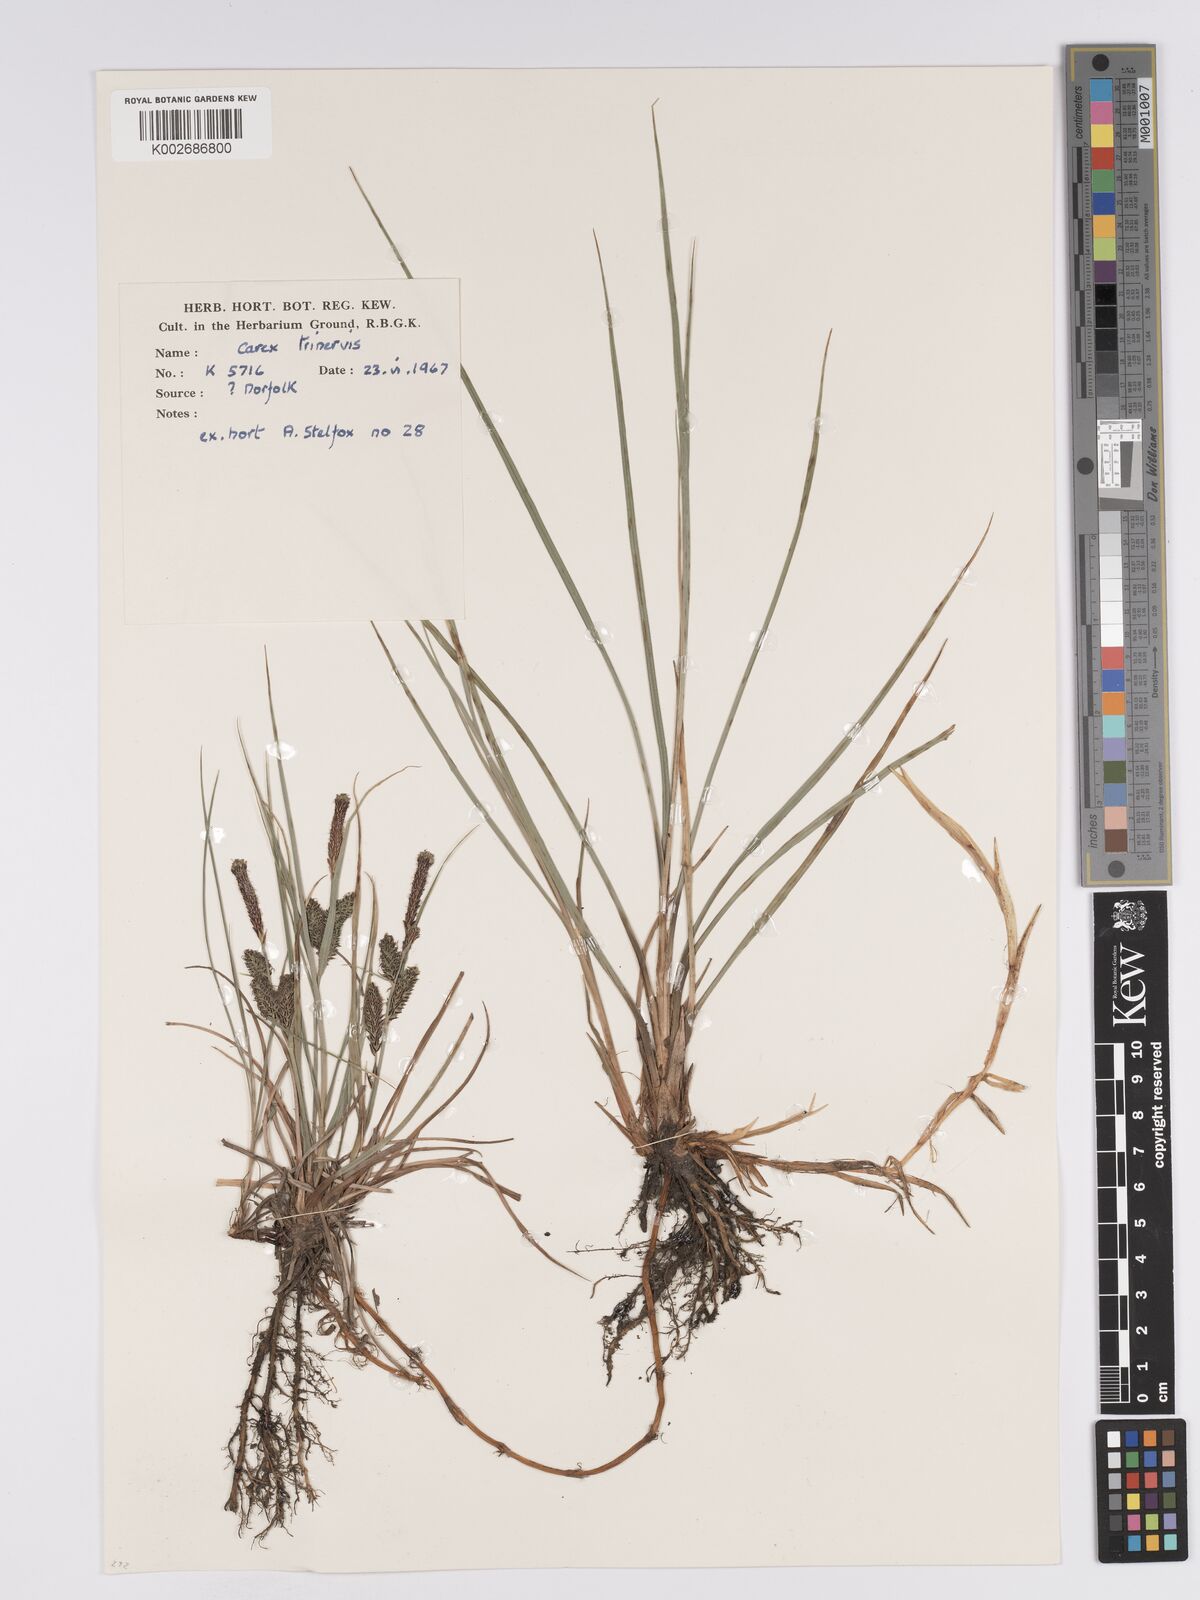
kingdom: Plantae
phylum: Tracheophyta
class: Liliopsida
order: Poales
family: Cyperaceae
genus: Carex
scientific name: Carex trinervis
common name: Three-nerved sedge
